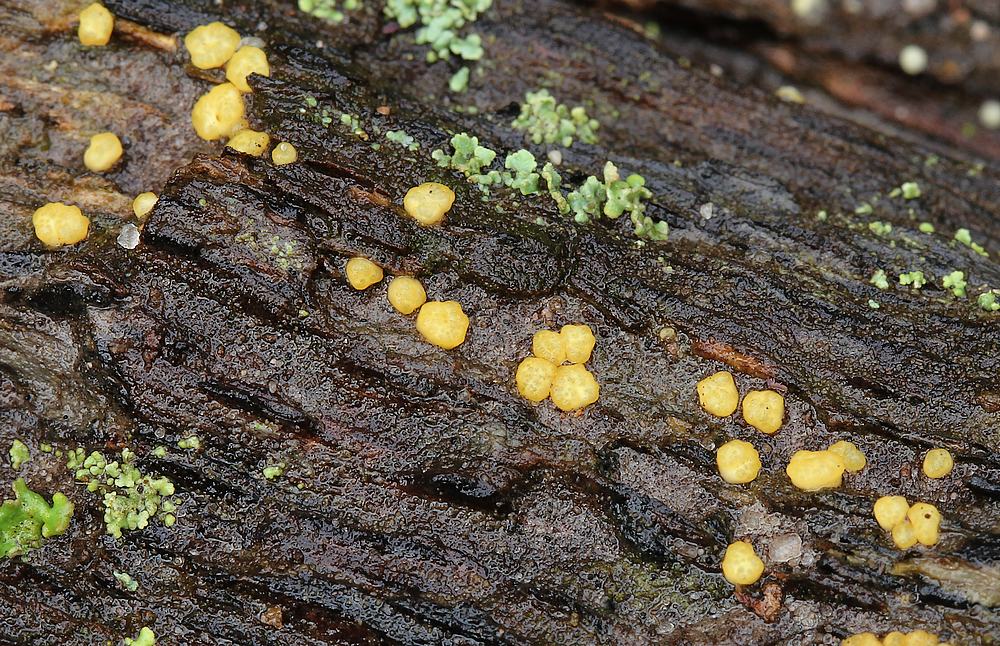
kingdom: Fungi
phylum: Ascomycota
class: Sordariomycetes
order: Hypocreales
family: Hypocreaceae
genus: Trichoderma
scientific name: Trichoderma
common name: kødkerne
